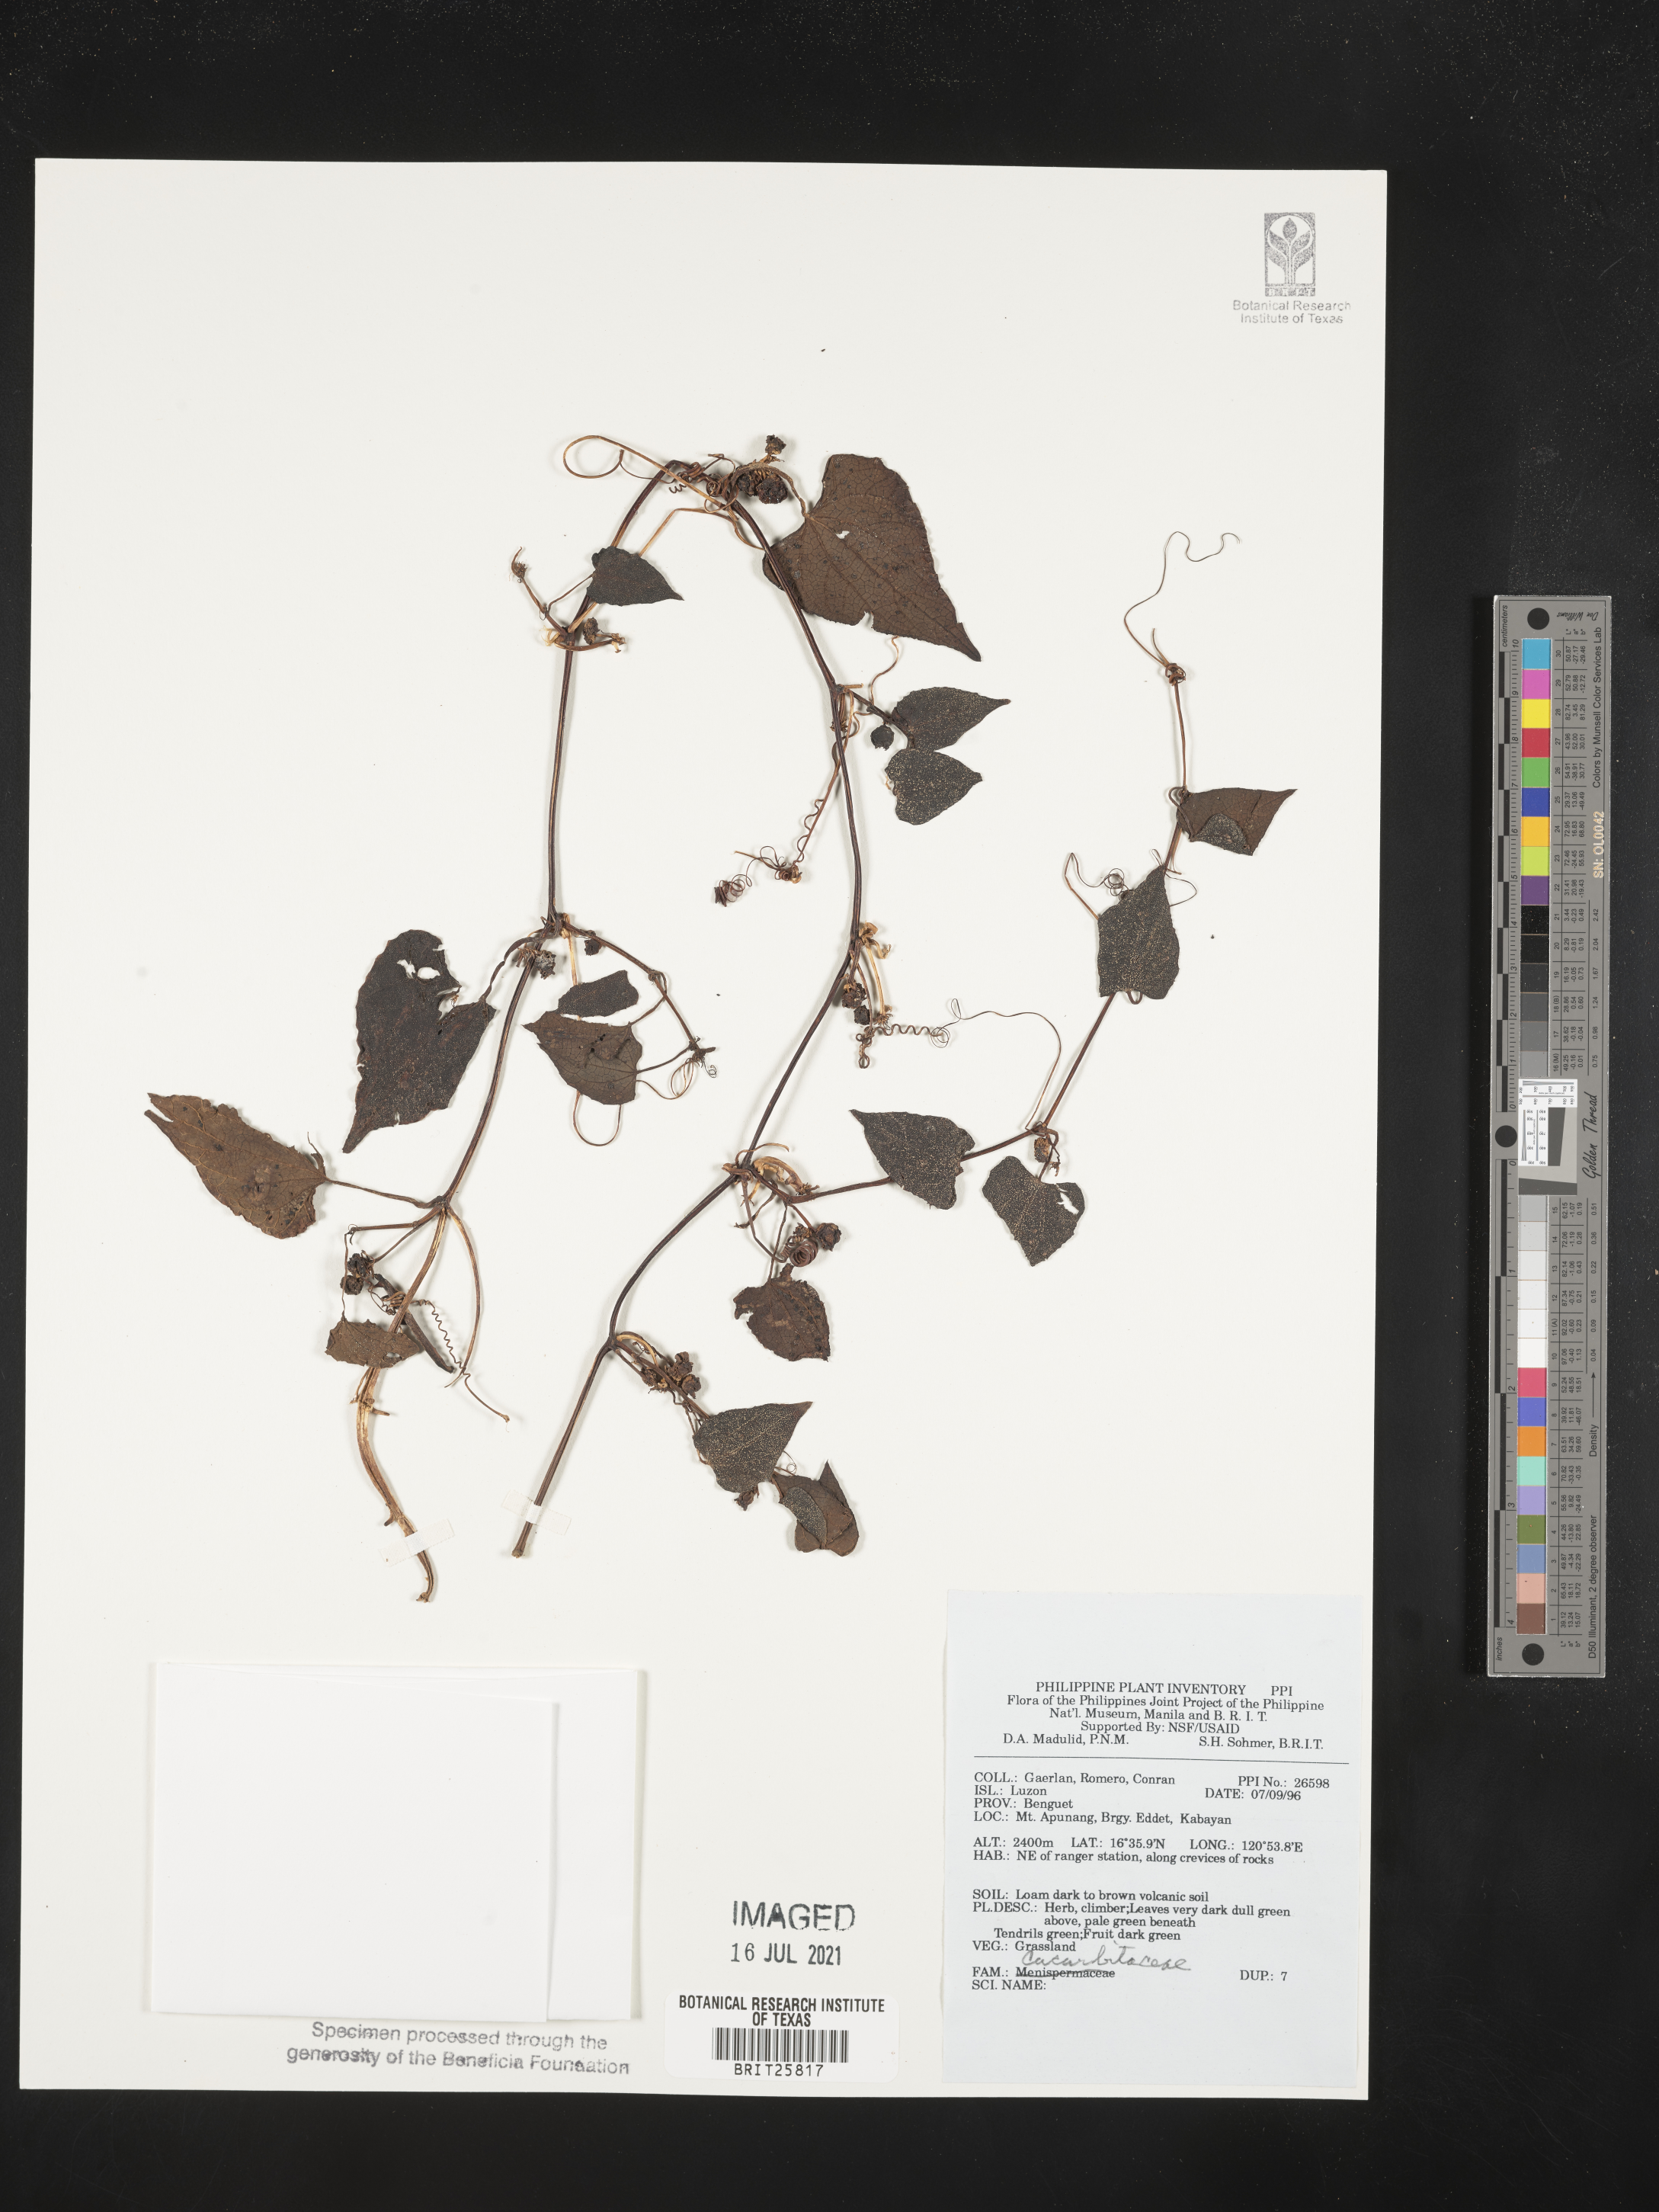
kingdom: Plantae
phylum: Tracheophyta
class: Magnoliopsida
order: Cucurbitales
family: Cucurbitaceae
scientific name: Cucurbitaceae
